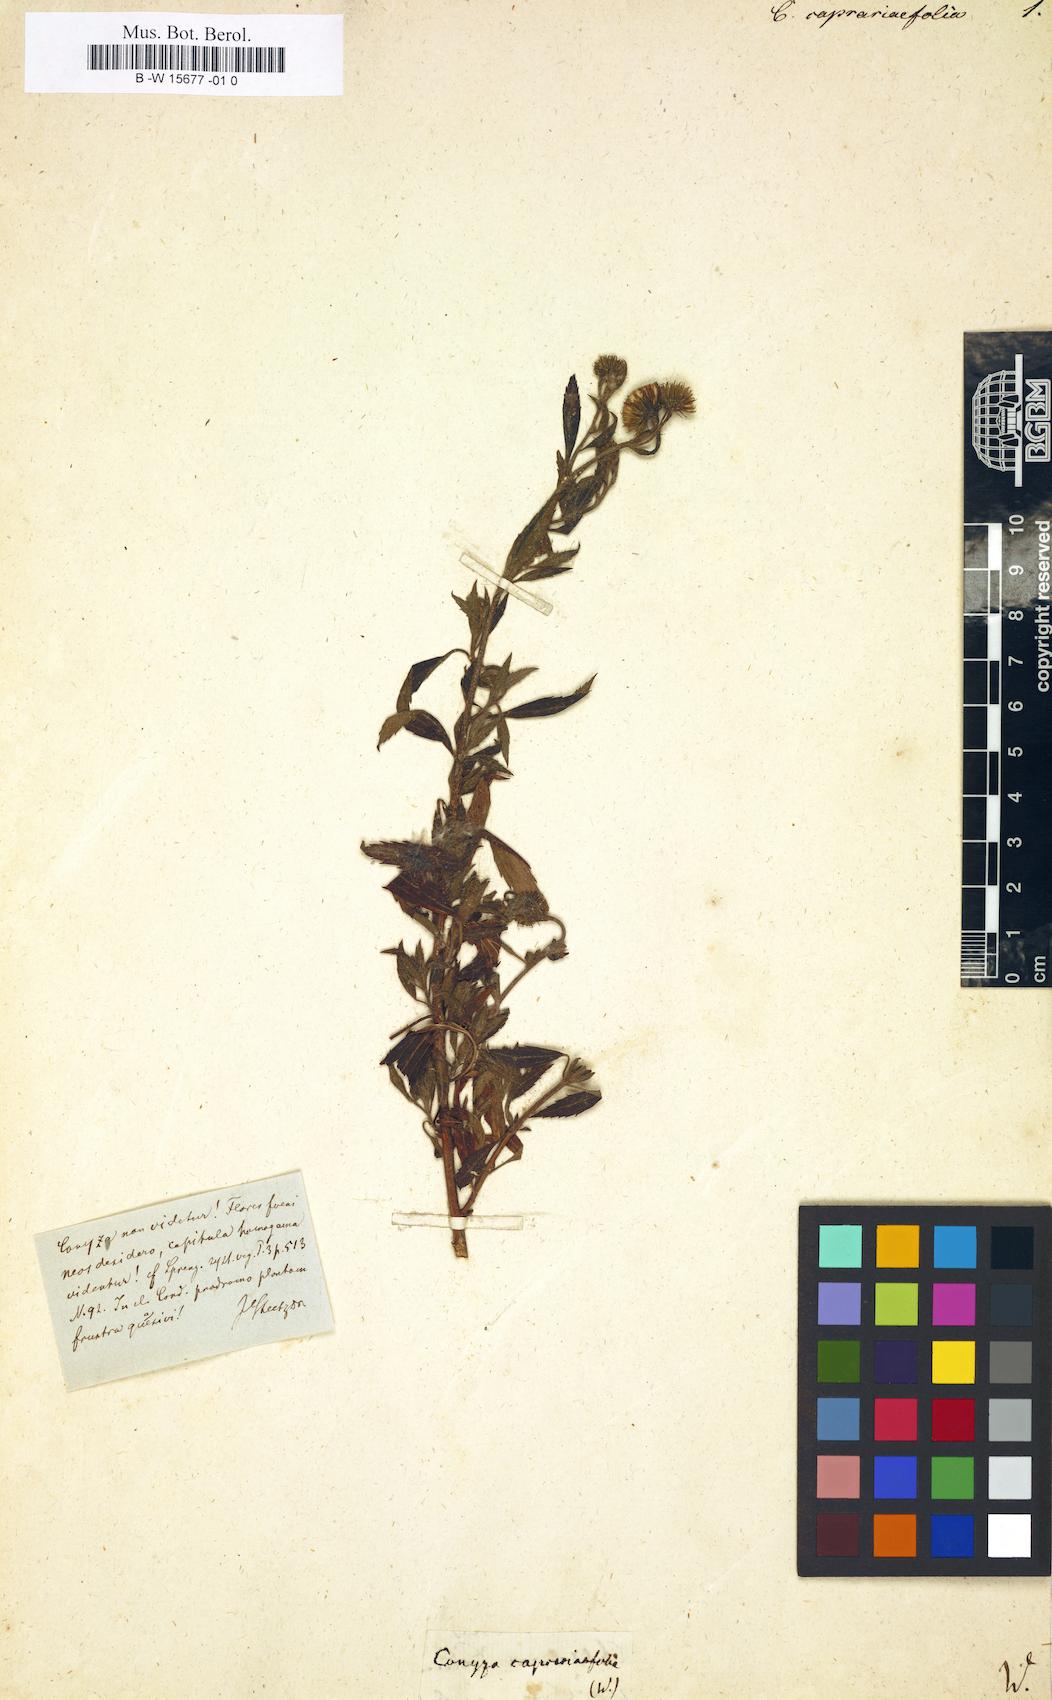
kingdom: Plantae
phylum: Tracheophyta
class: Magnoliopsida
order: Asterales
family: Asteraceae
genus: Erigeron
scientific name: Erigeron Conyza caprariifolia
